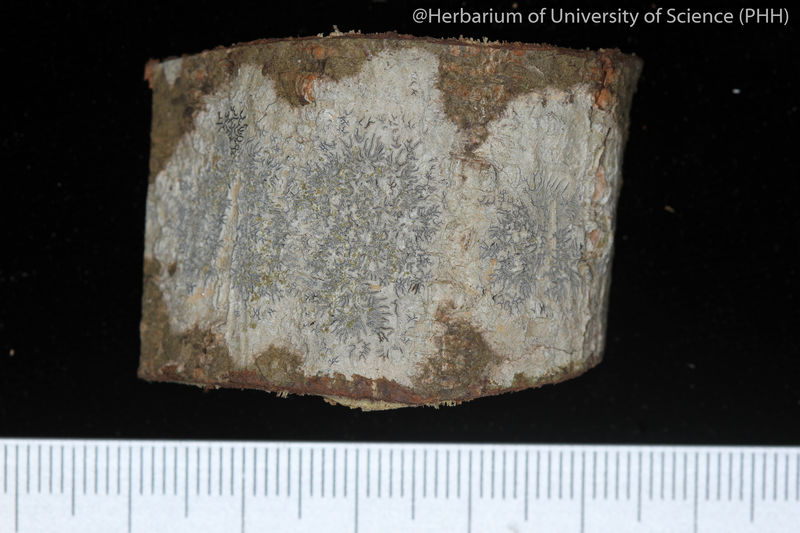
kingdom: Fungi
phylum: Ascomycota
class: Lecanoromycetes
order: Ostropales
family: Graphidaceae
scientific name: Graphidaceae
